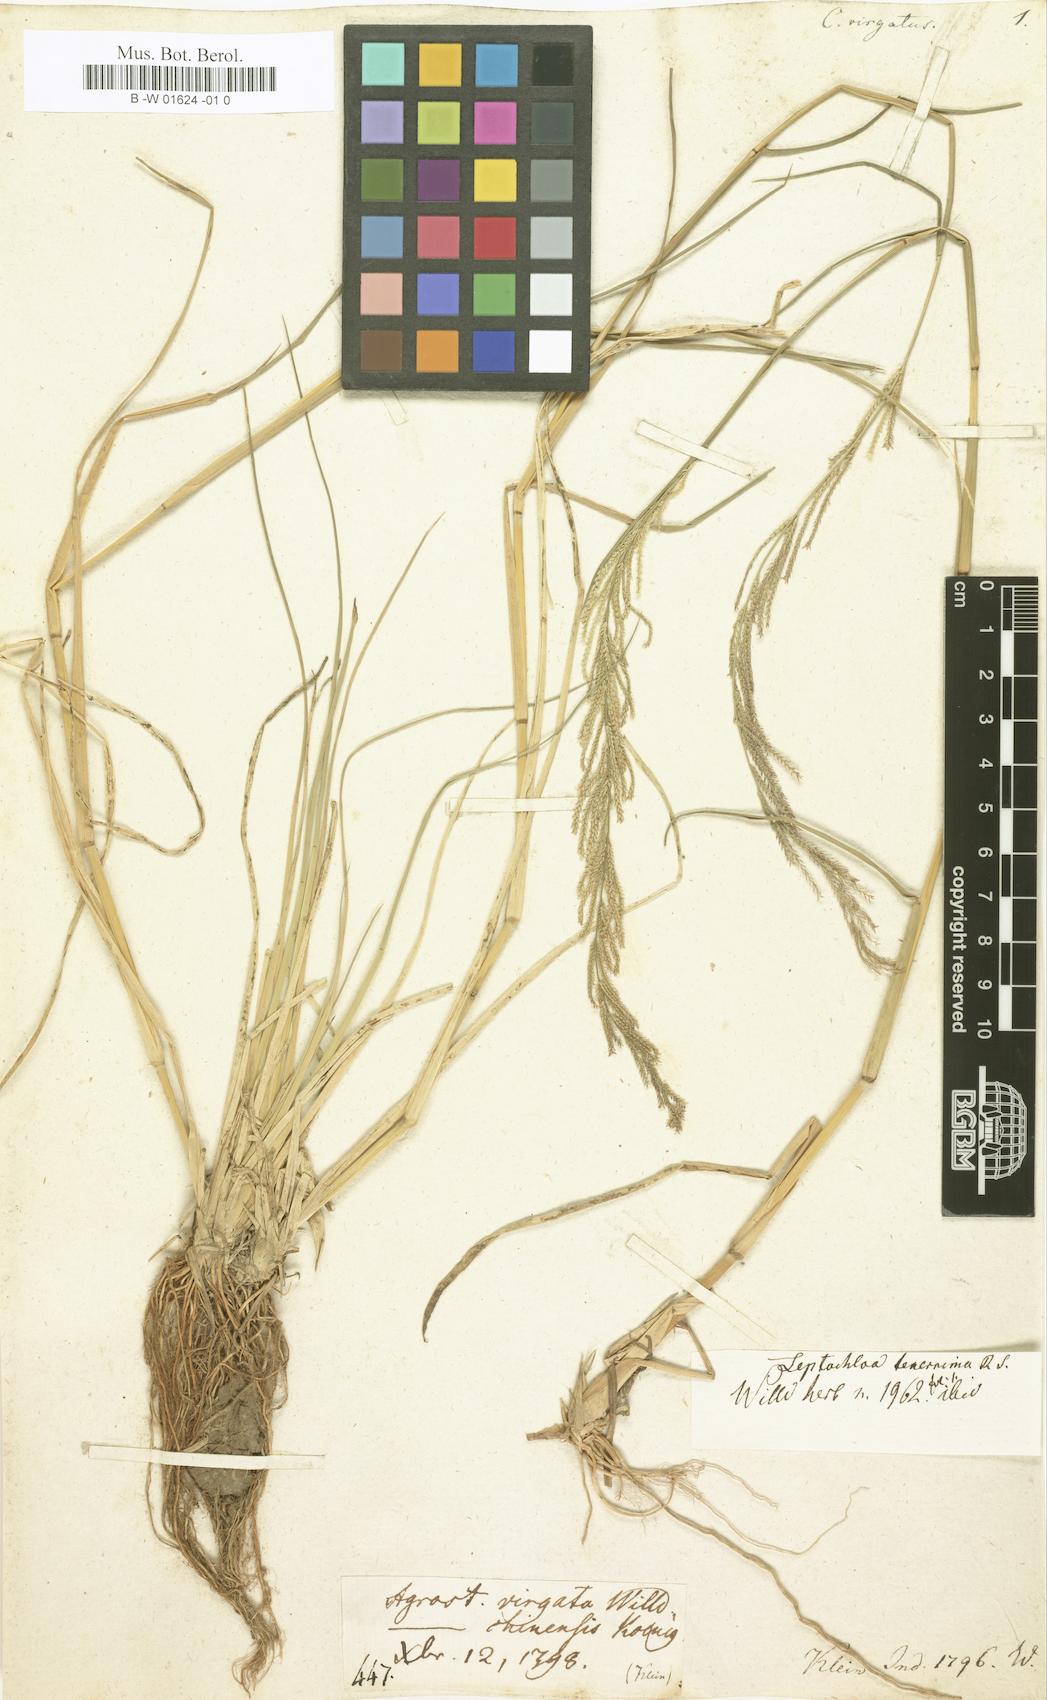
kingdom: Plantae
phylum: Tracheophyta
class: Liliopsida
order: Poales
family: Poaceae
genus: Leptochloa
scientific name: Leptochloa virgata
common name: Tropical sprangletop
